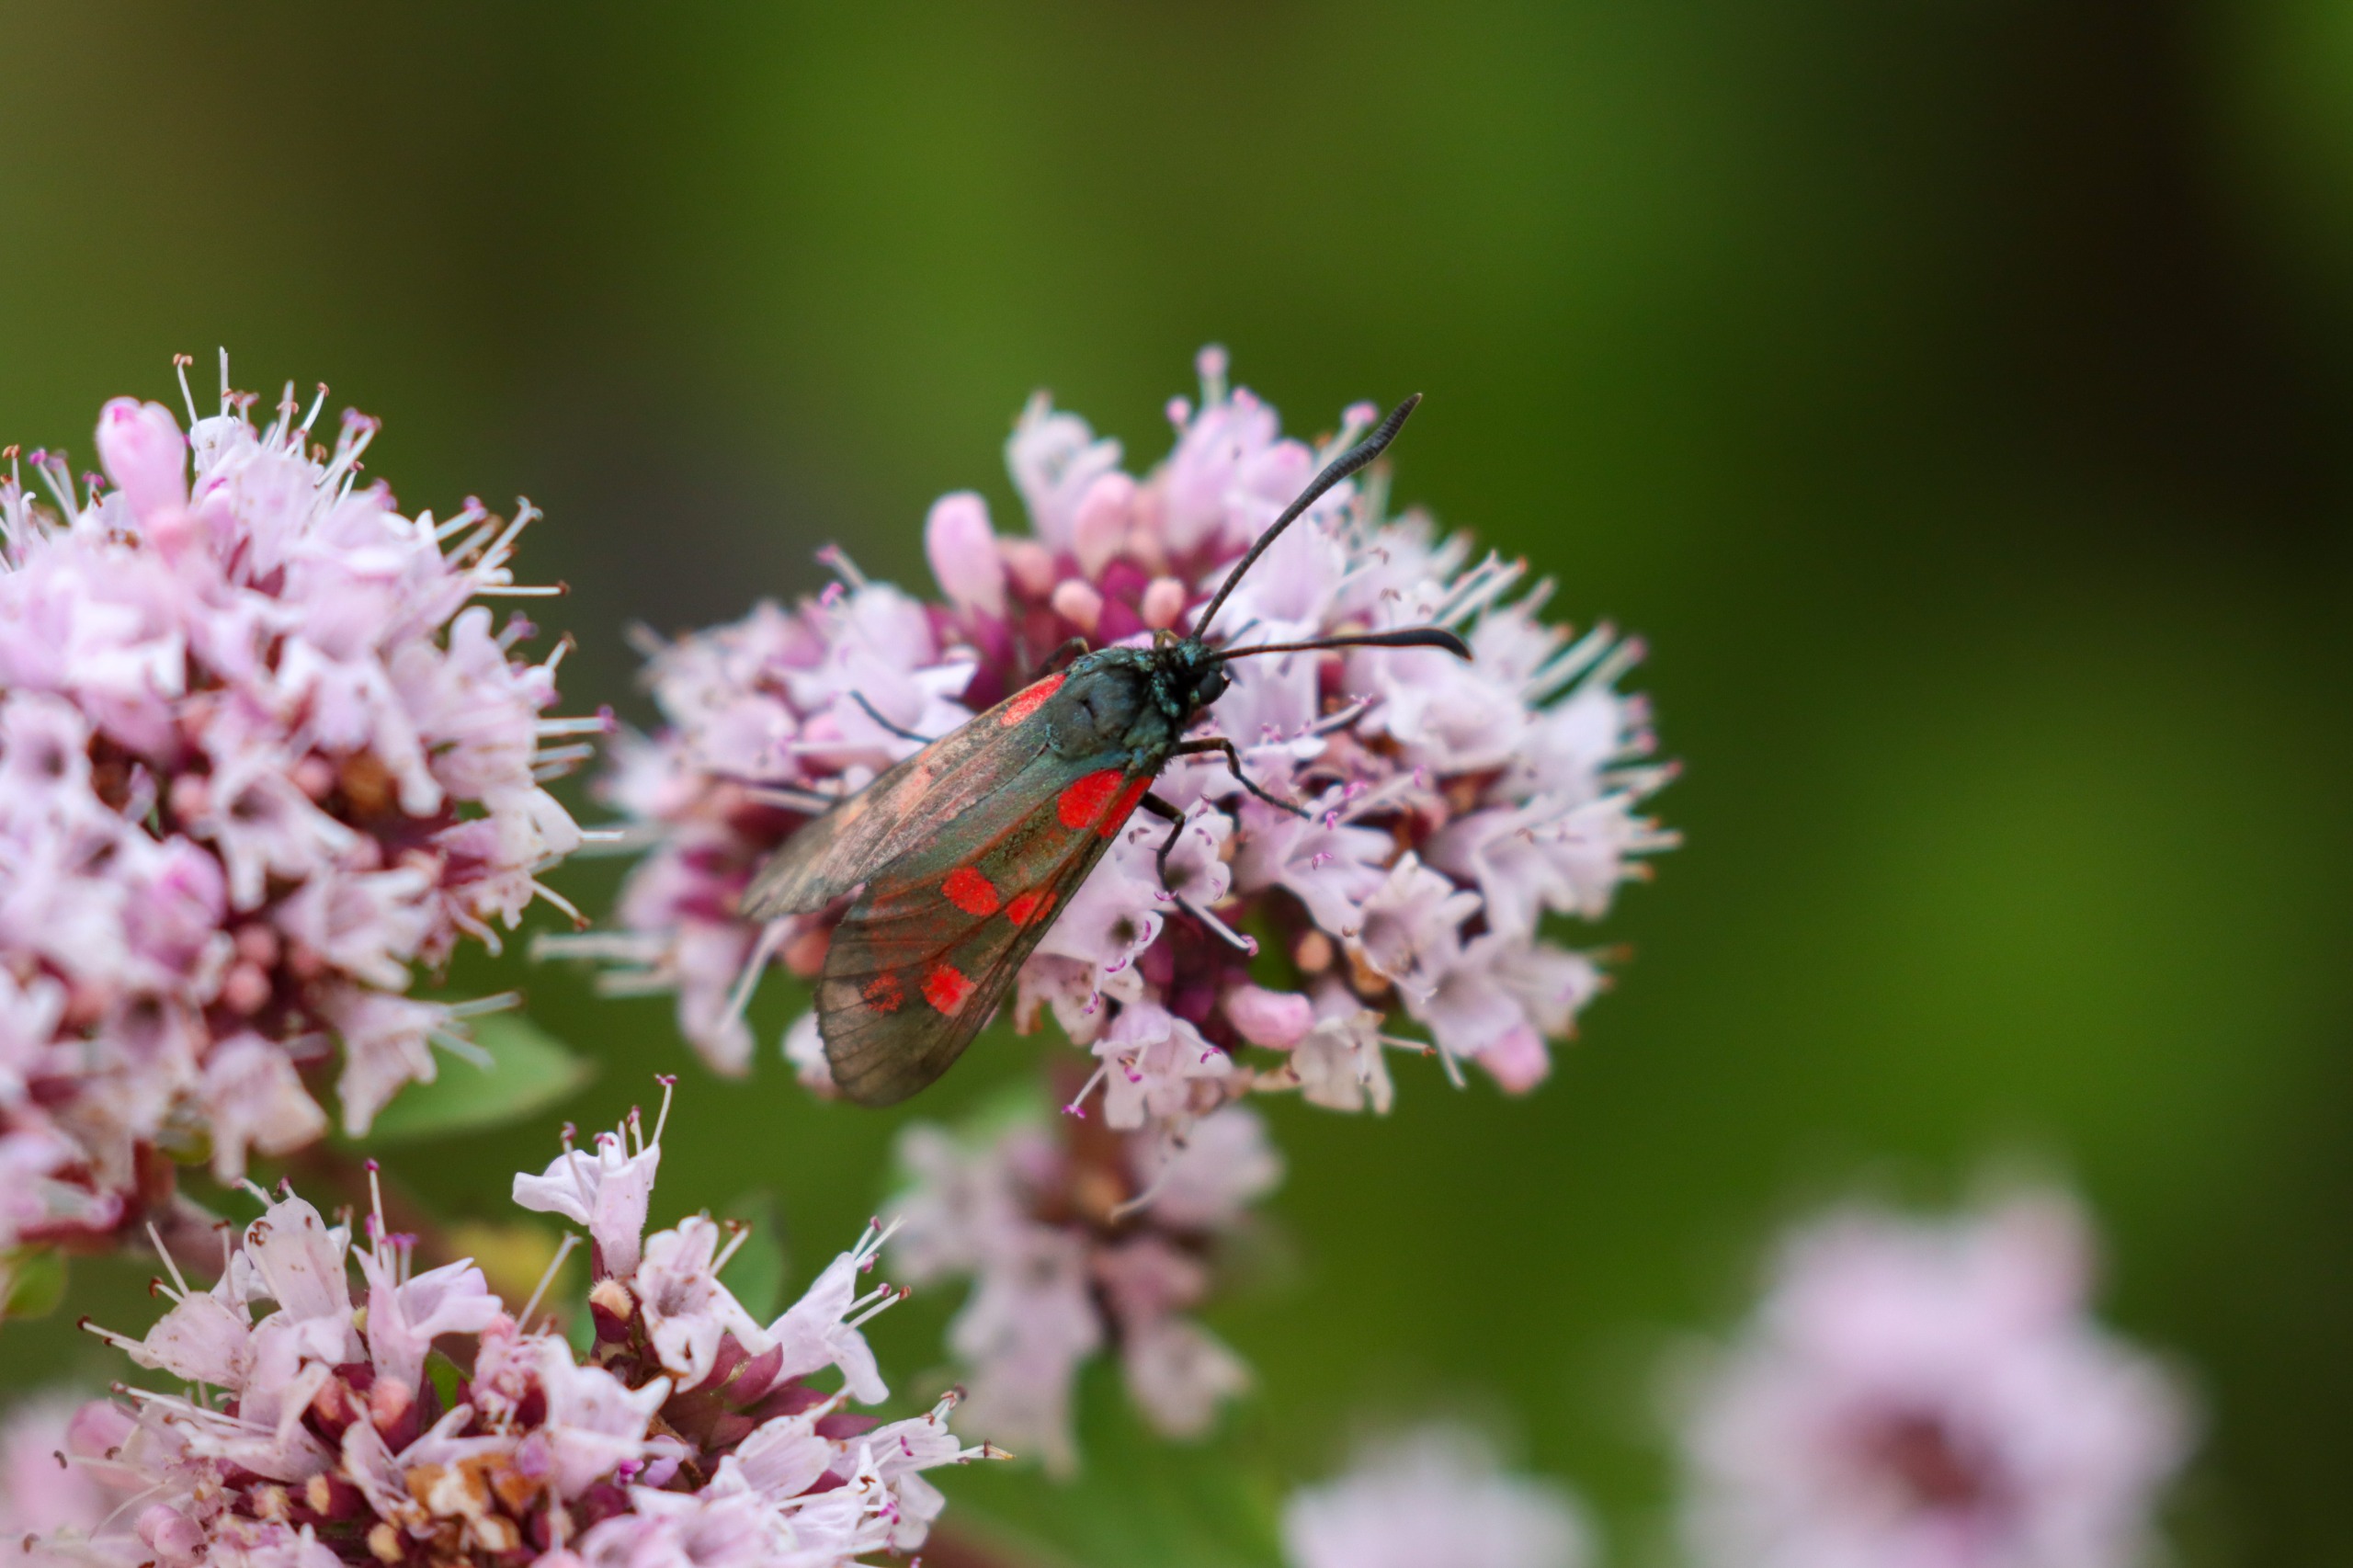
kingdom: Animalia
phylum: Arthropoda
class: Insecta
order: Lepidoptera
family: Zygaenidae
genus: Zygaena
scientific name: Zygaena filipendulae
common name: Seksplettet køllesværmer
